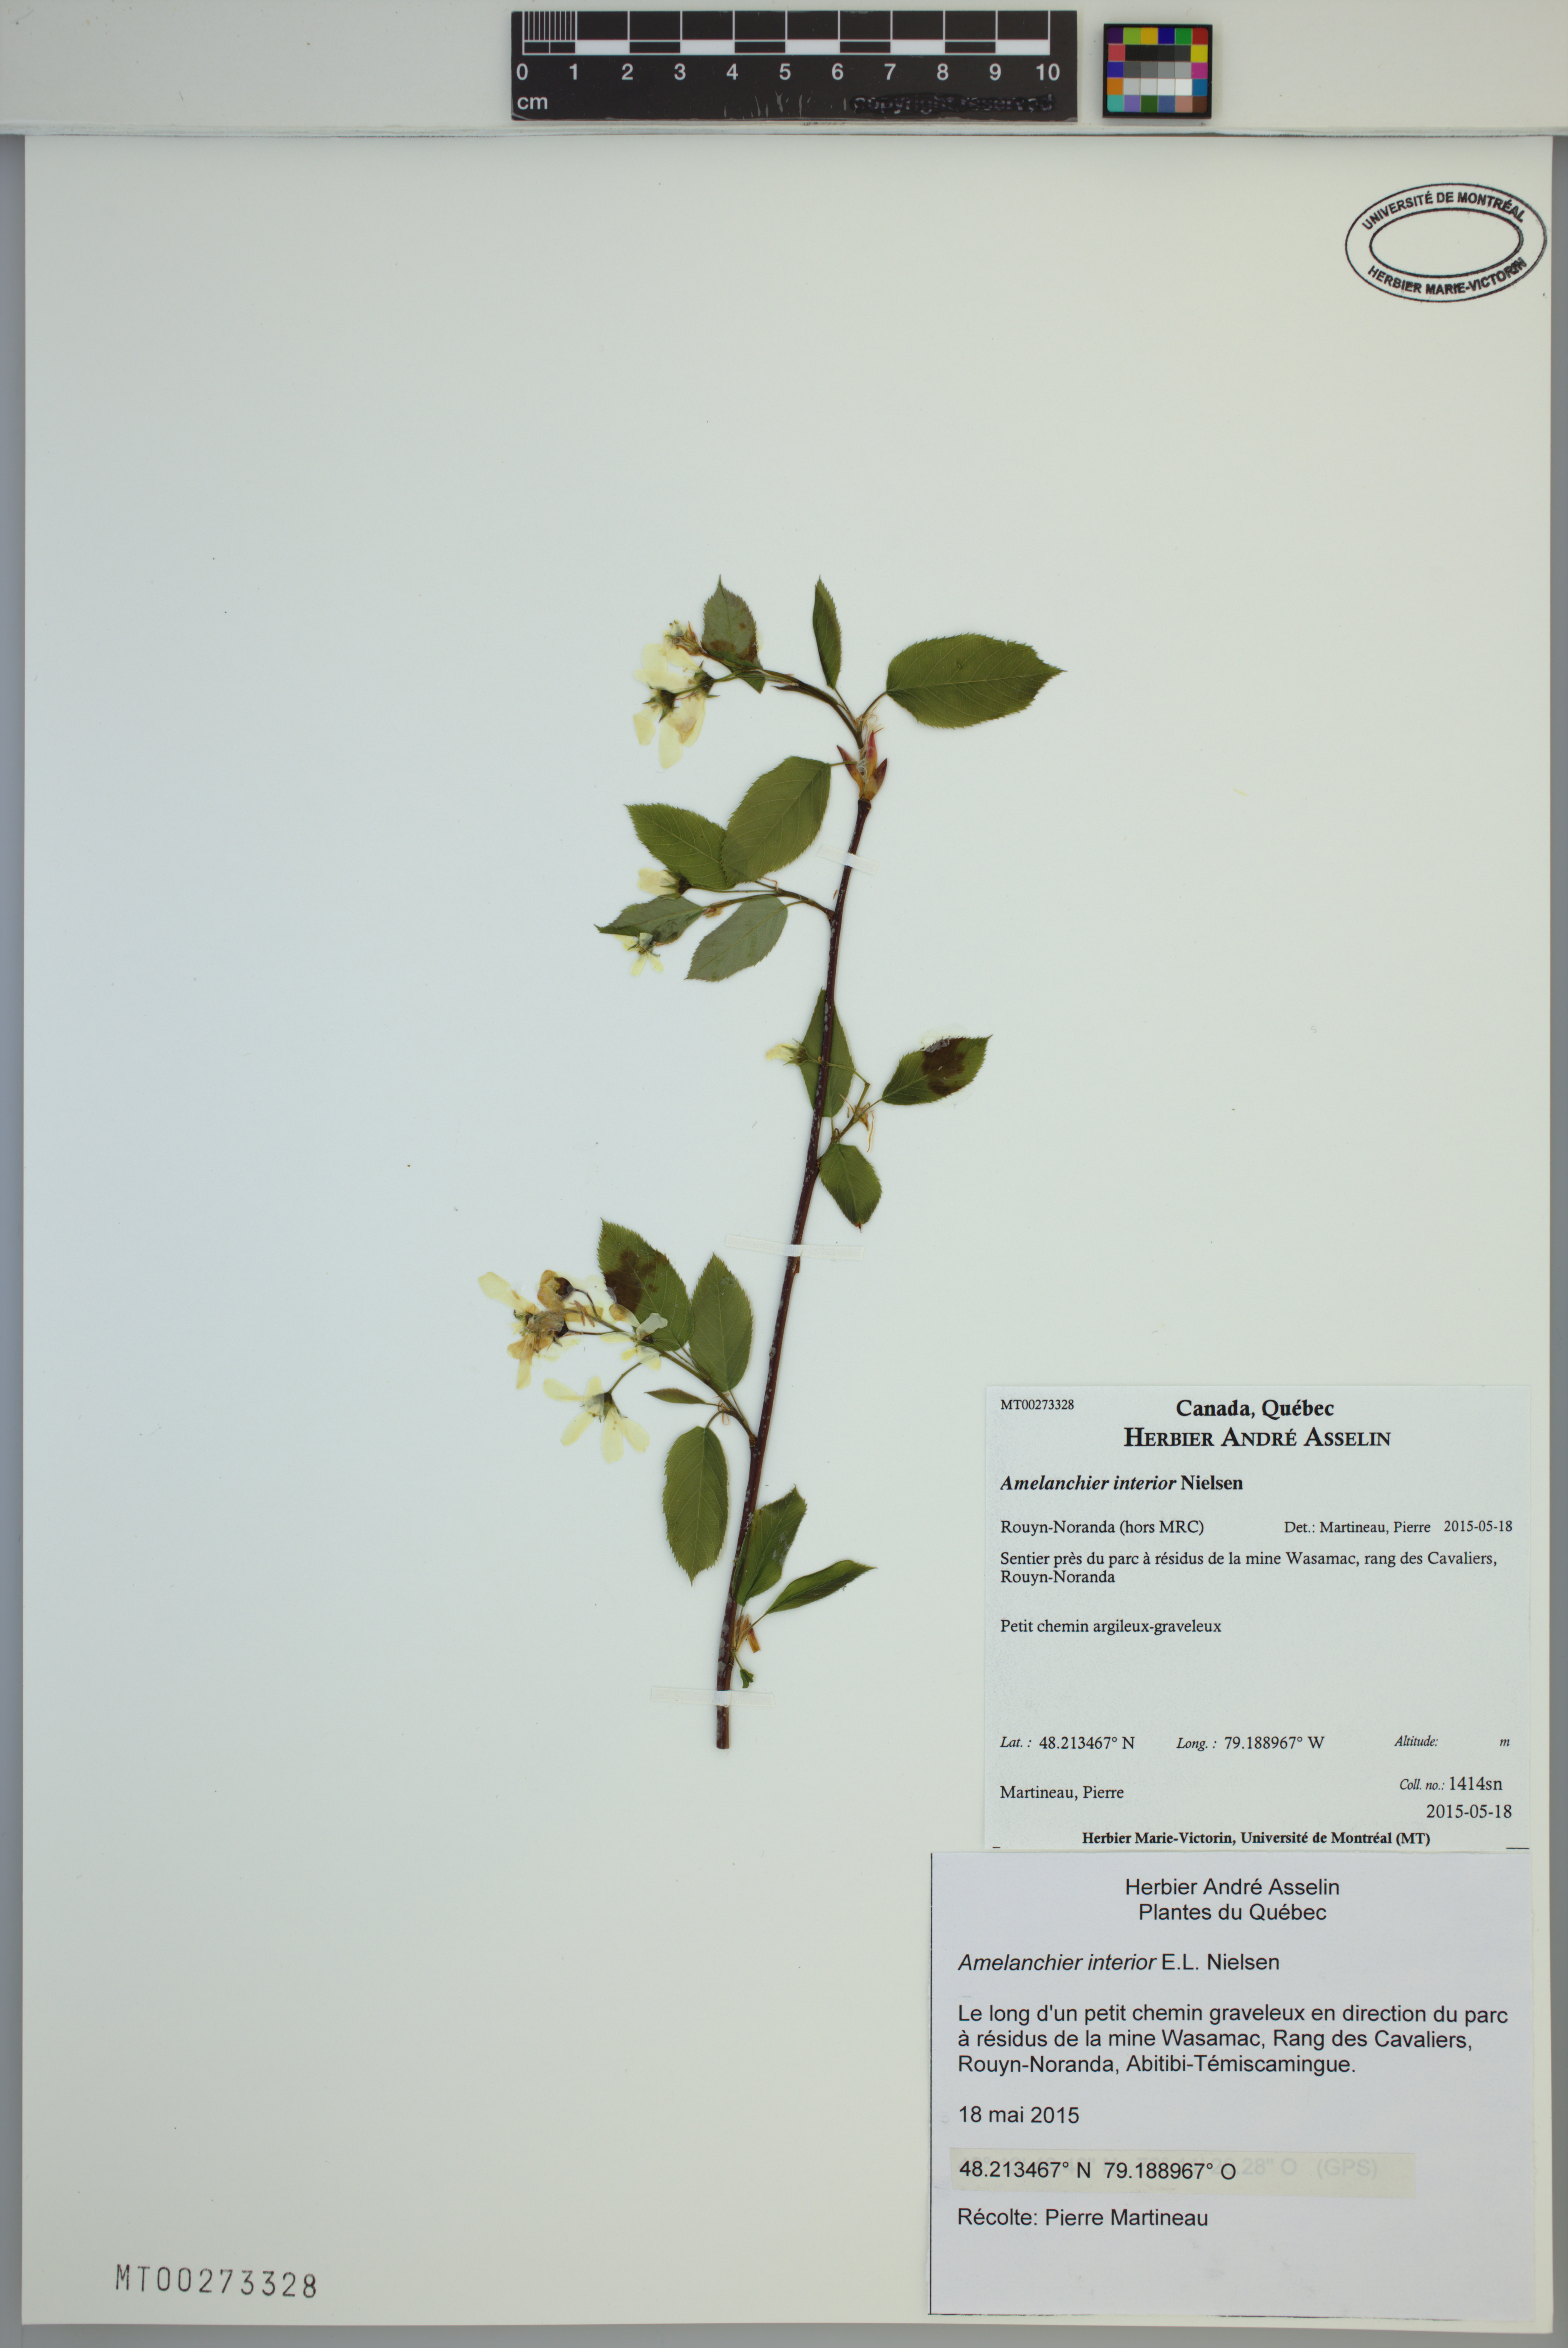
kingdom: Plantae
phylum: Tracheophyta
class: Magnoliopsida
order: Rosales
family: Rosaceae
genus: Amelanchier
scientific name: Amelanchier interior
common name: Inland serviceberry
